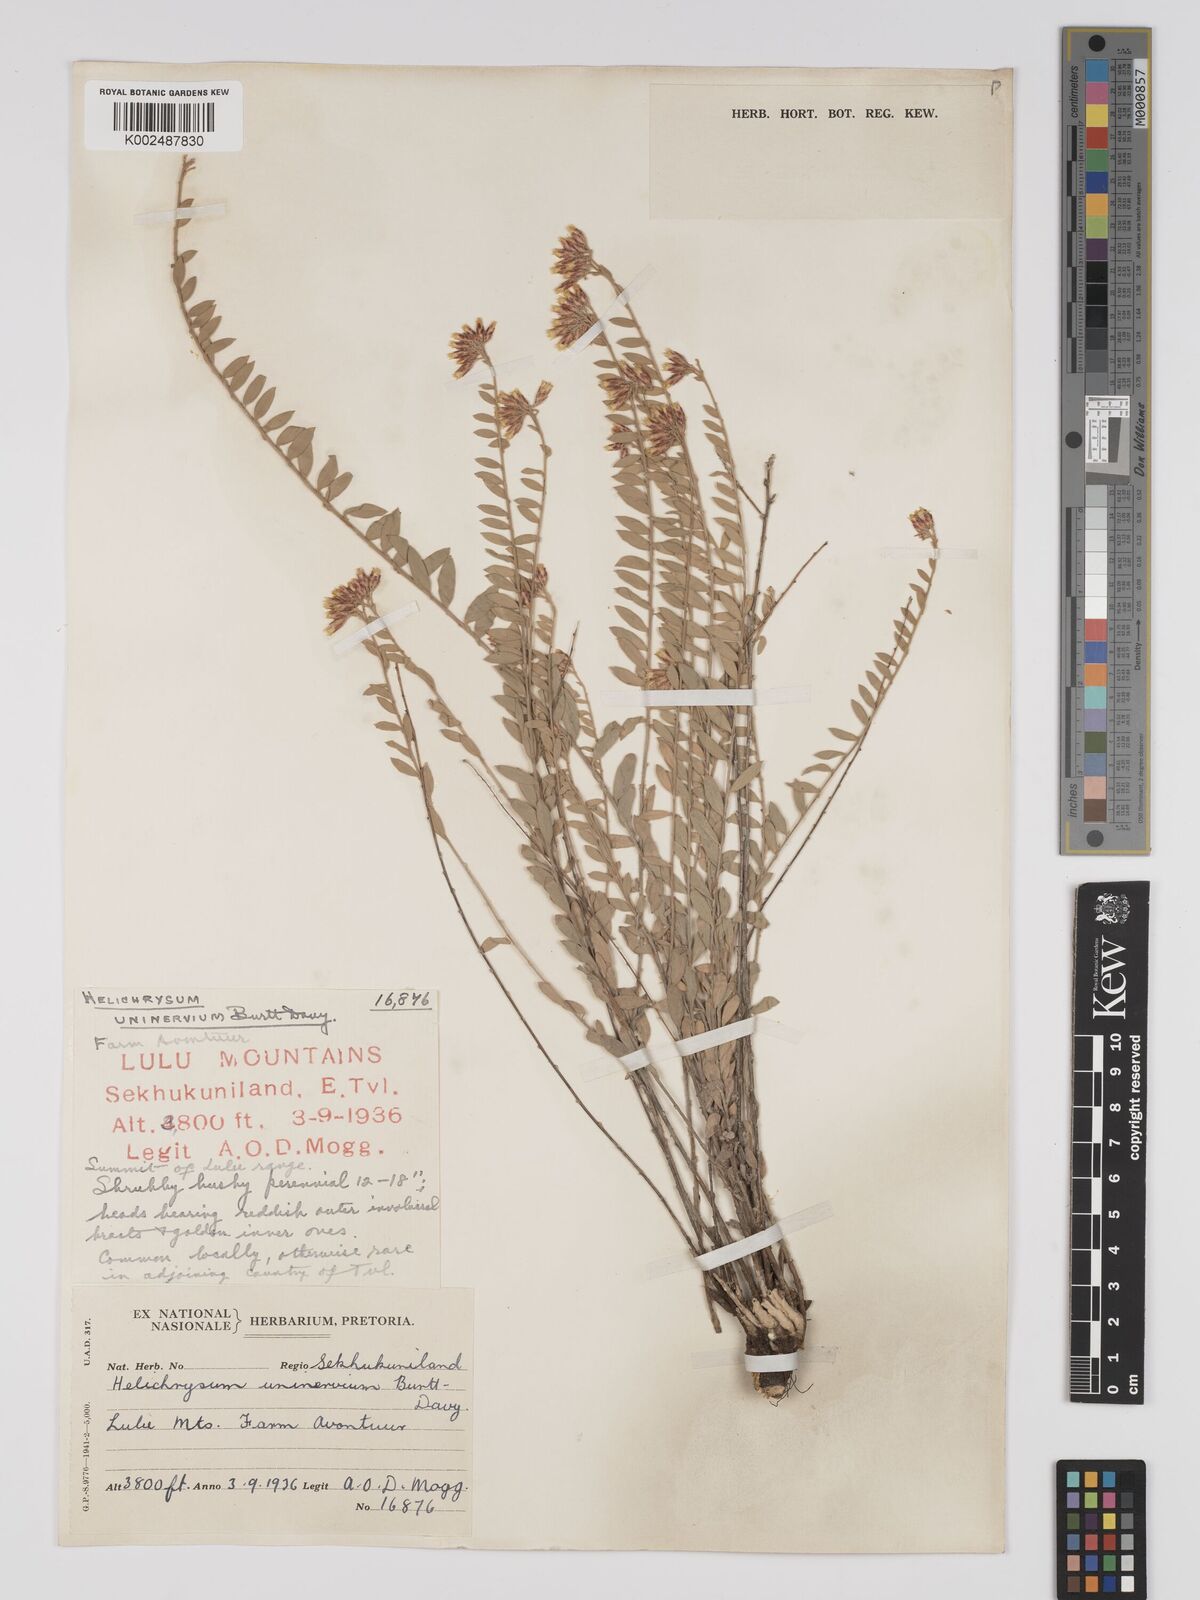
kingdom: Plantae
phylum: Tracheophyta
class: Magnoliopsida
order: Asterales
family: Asteraceae
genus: Helichrysum
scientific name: Helichrysum uninervium
